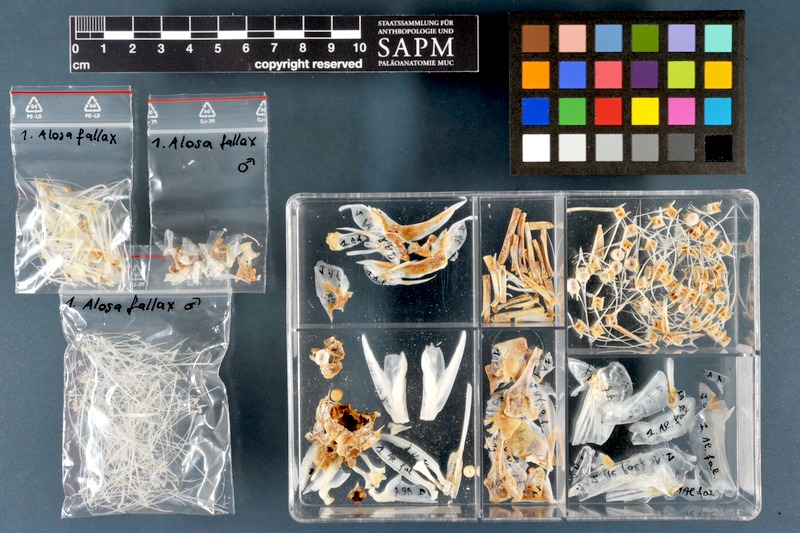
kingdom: Animalia
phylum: Chordata
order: Clupeiformes
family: Clupeidae
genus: Alosa
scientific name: Alosa fallax
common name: Twaite shad
